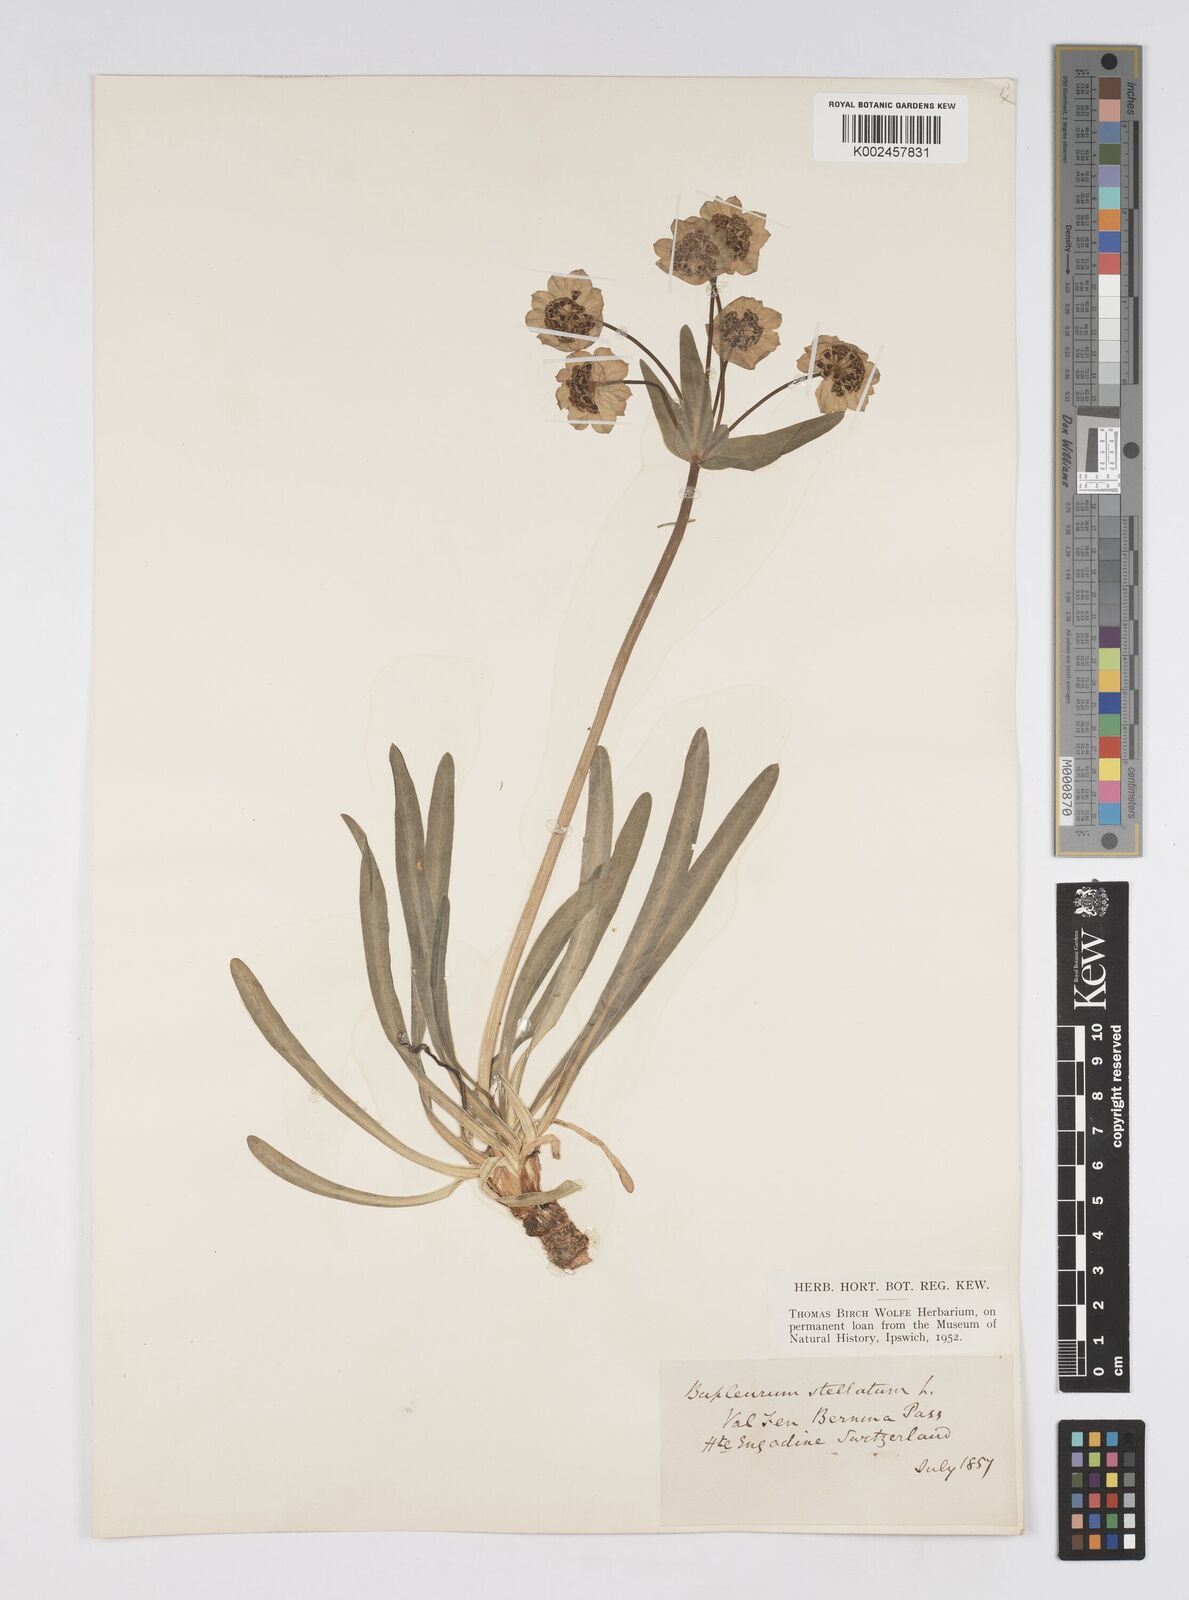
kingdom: Plantae
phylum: Tracheophyta
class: Magnoliopsida
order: Apiales
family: Apiaceae
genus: Bupleurum
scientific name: Bupleurum stellatum
